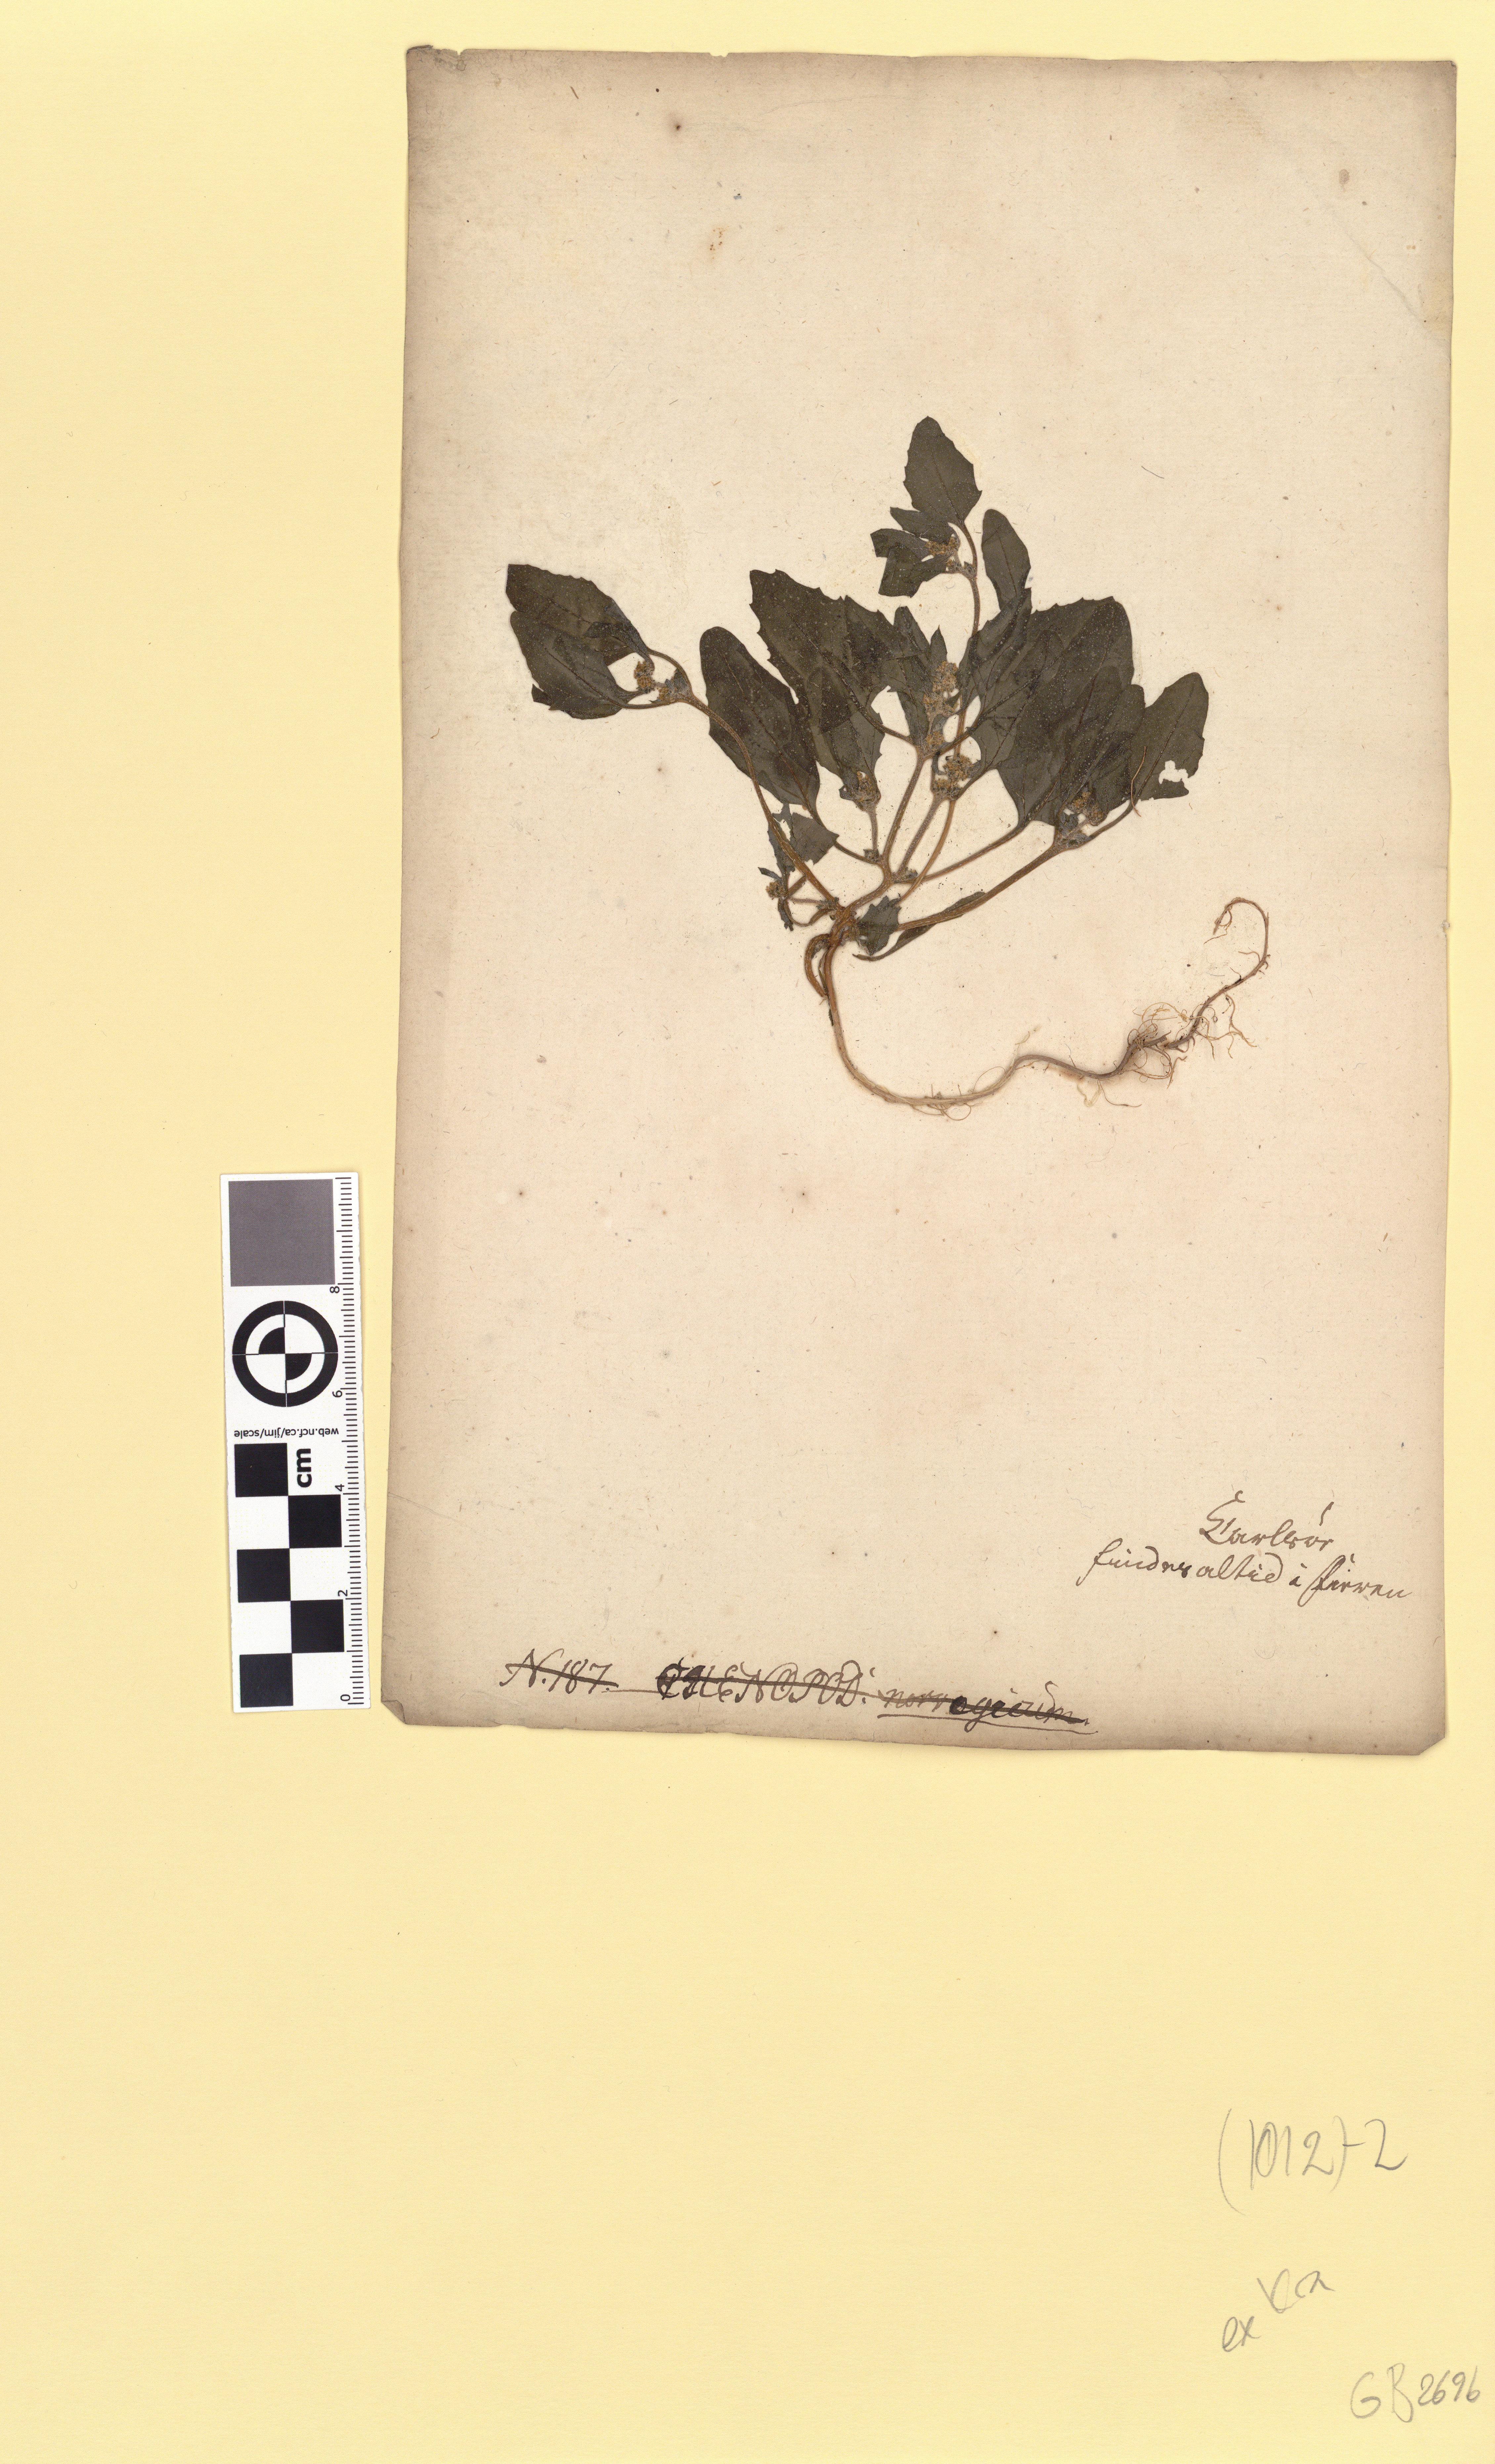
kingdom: Plantae
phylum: Tracheophyta
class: Magnoliopsida
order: Caryophyllales
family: Amaranthaceae
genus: Atriplex
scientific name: Atriplex prostrata
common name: Spear-leaved orache
